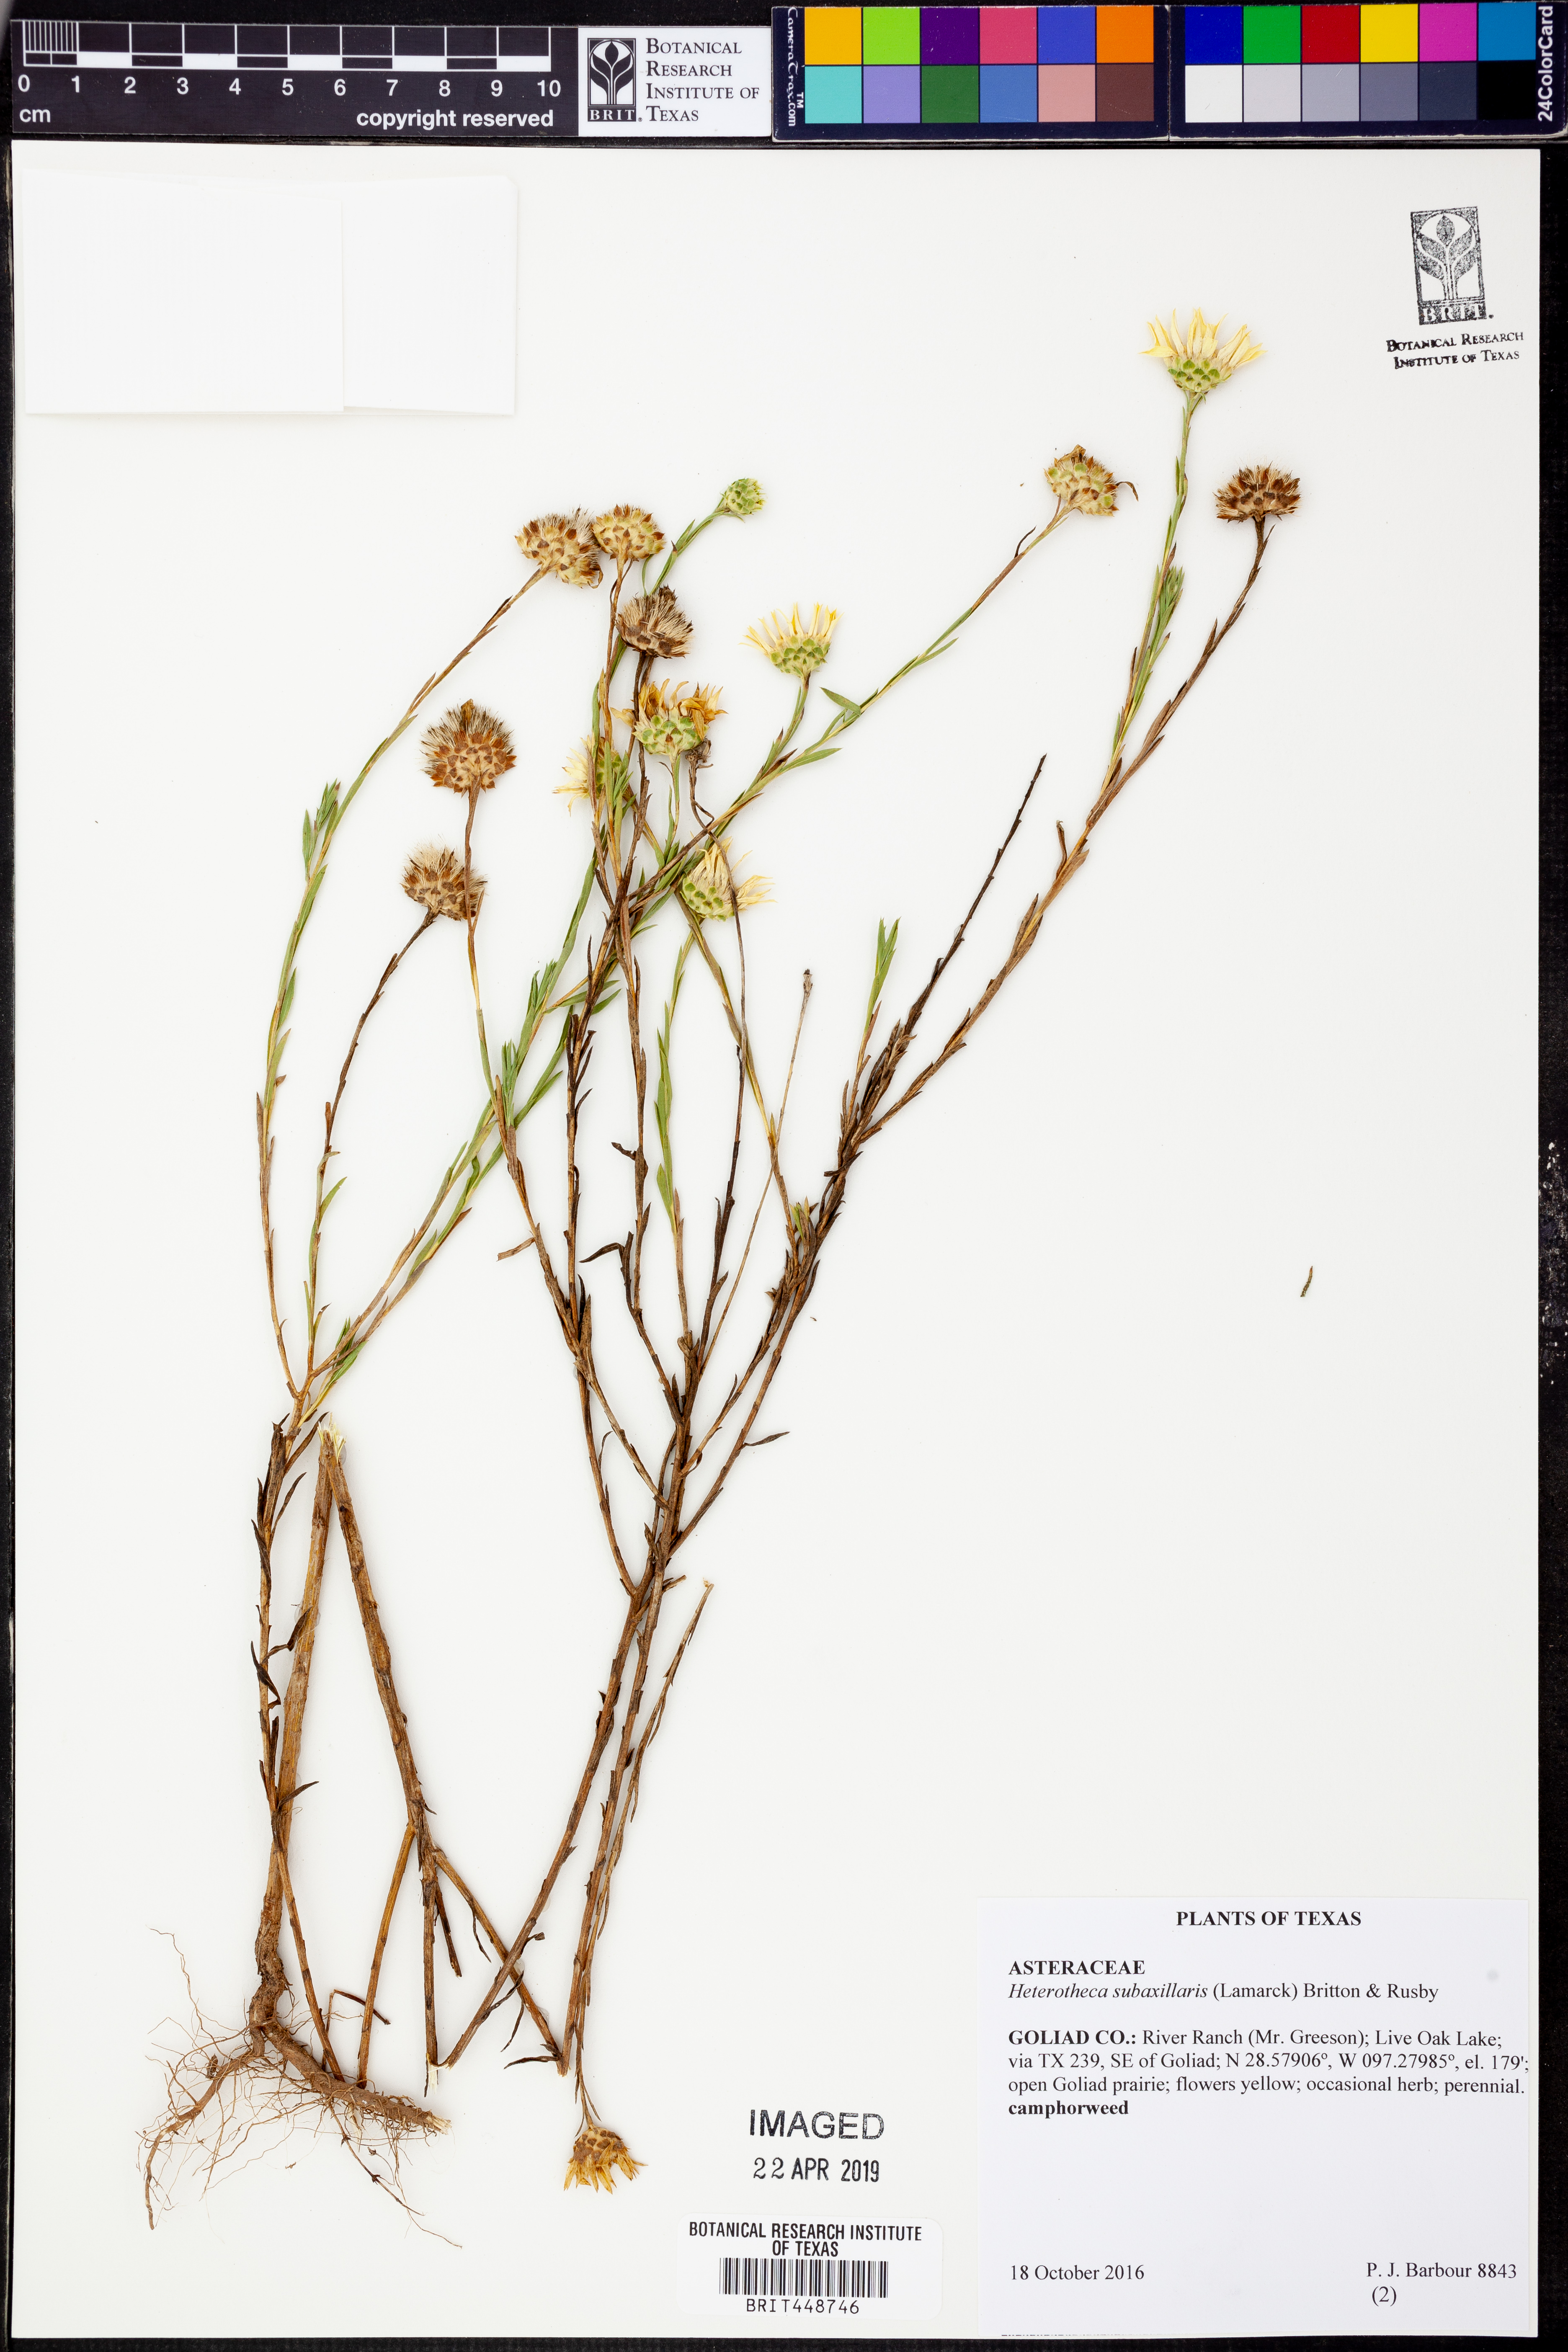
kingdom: Plantae
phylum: Tracheophyta
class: Magnoliopsida
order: Asterales
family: Asteraceae
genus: Heterotheca
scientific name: Heterotheca subaxillaris
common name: Camphorweed
